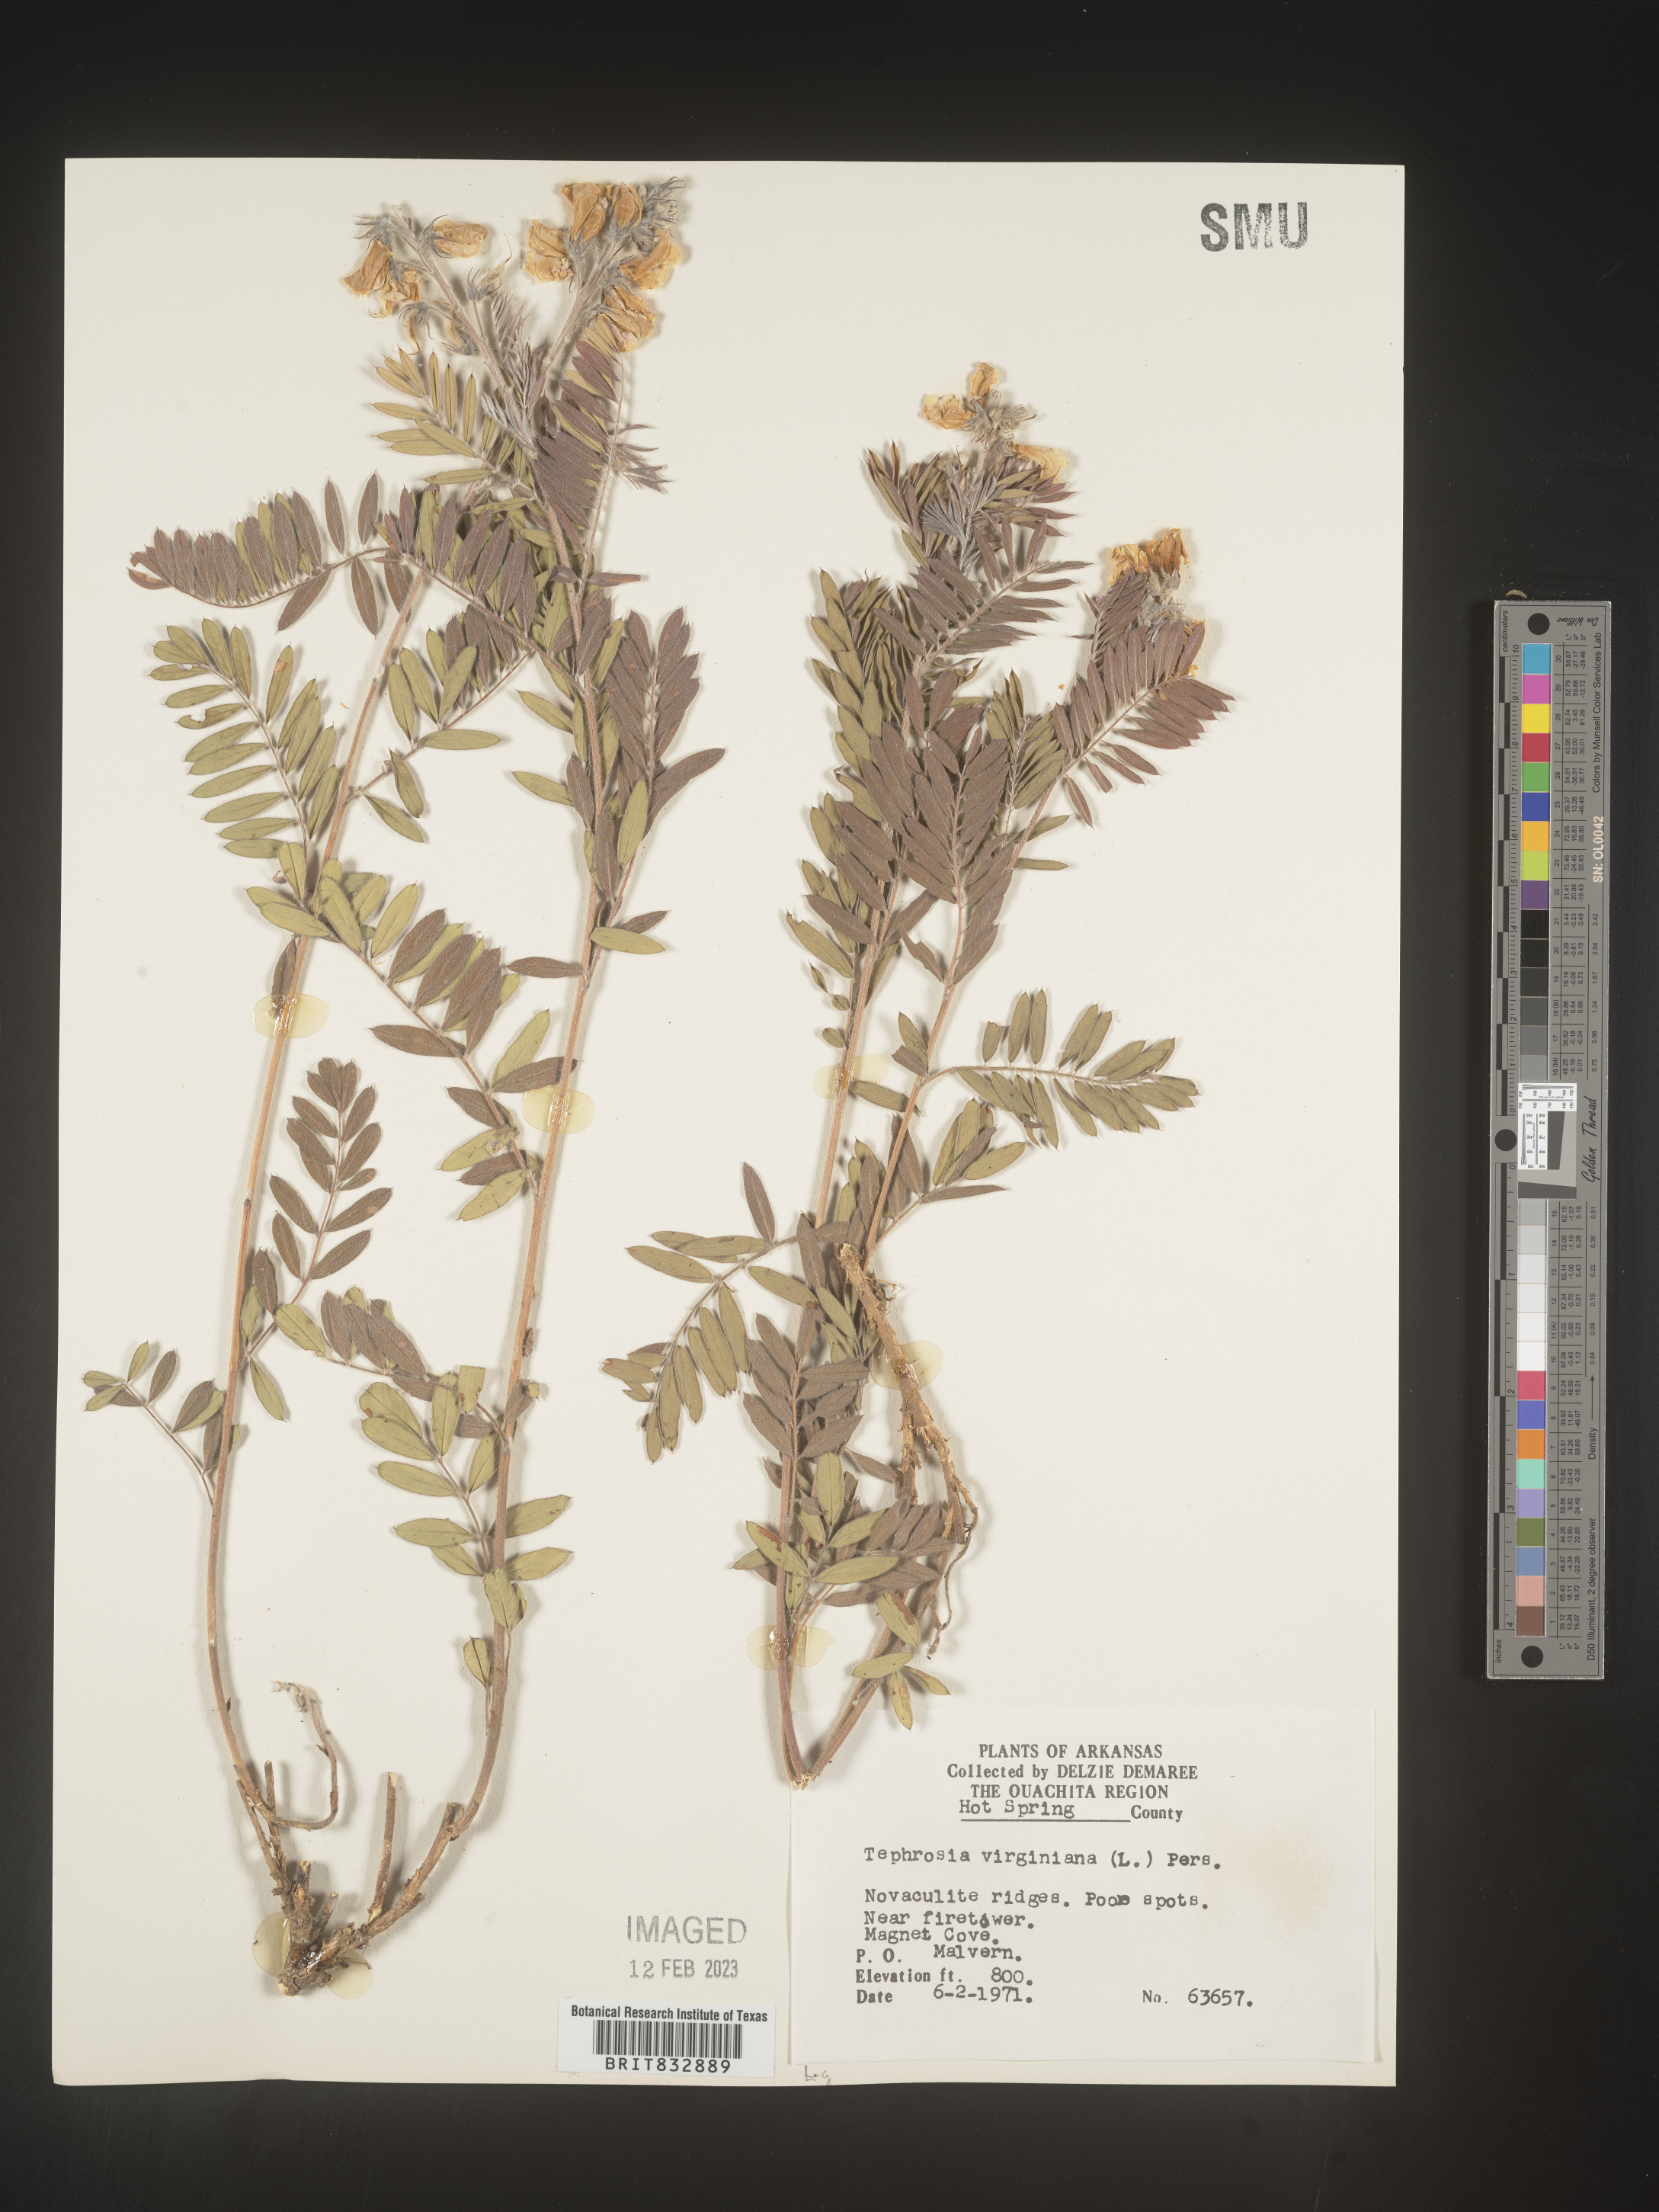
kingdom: Plantae
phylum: Tracheophyta
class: Magnoliopsida
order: Fabales
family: Fabaceae
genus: Tephrosia
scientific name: Tephrosia virginiana
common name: Rabbit-pea
